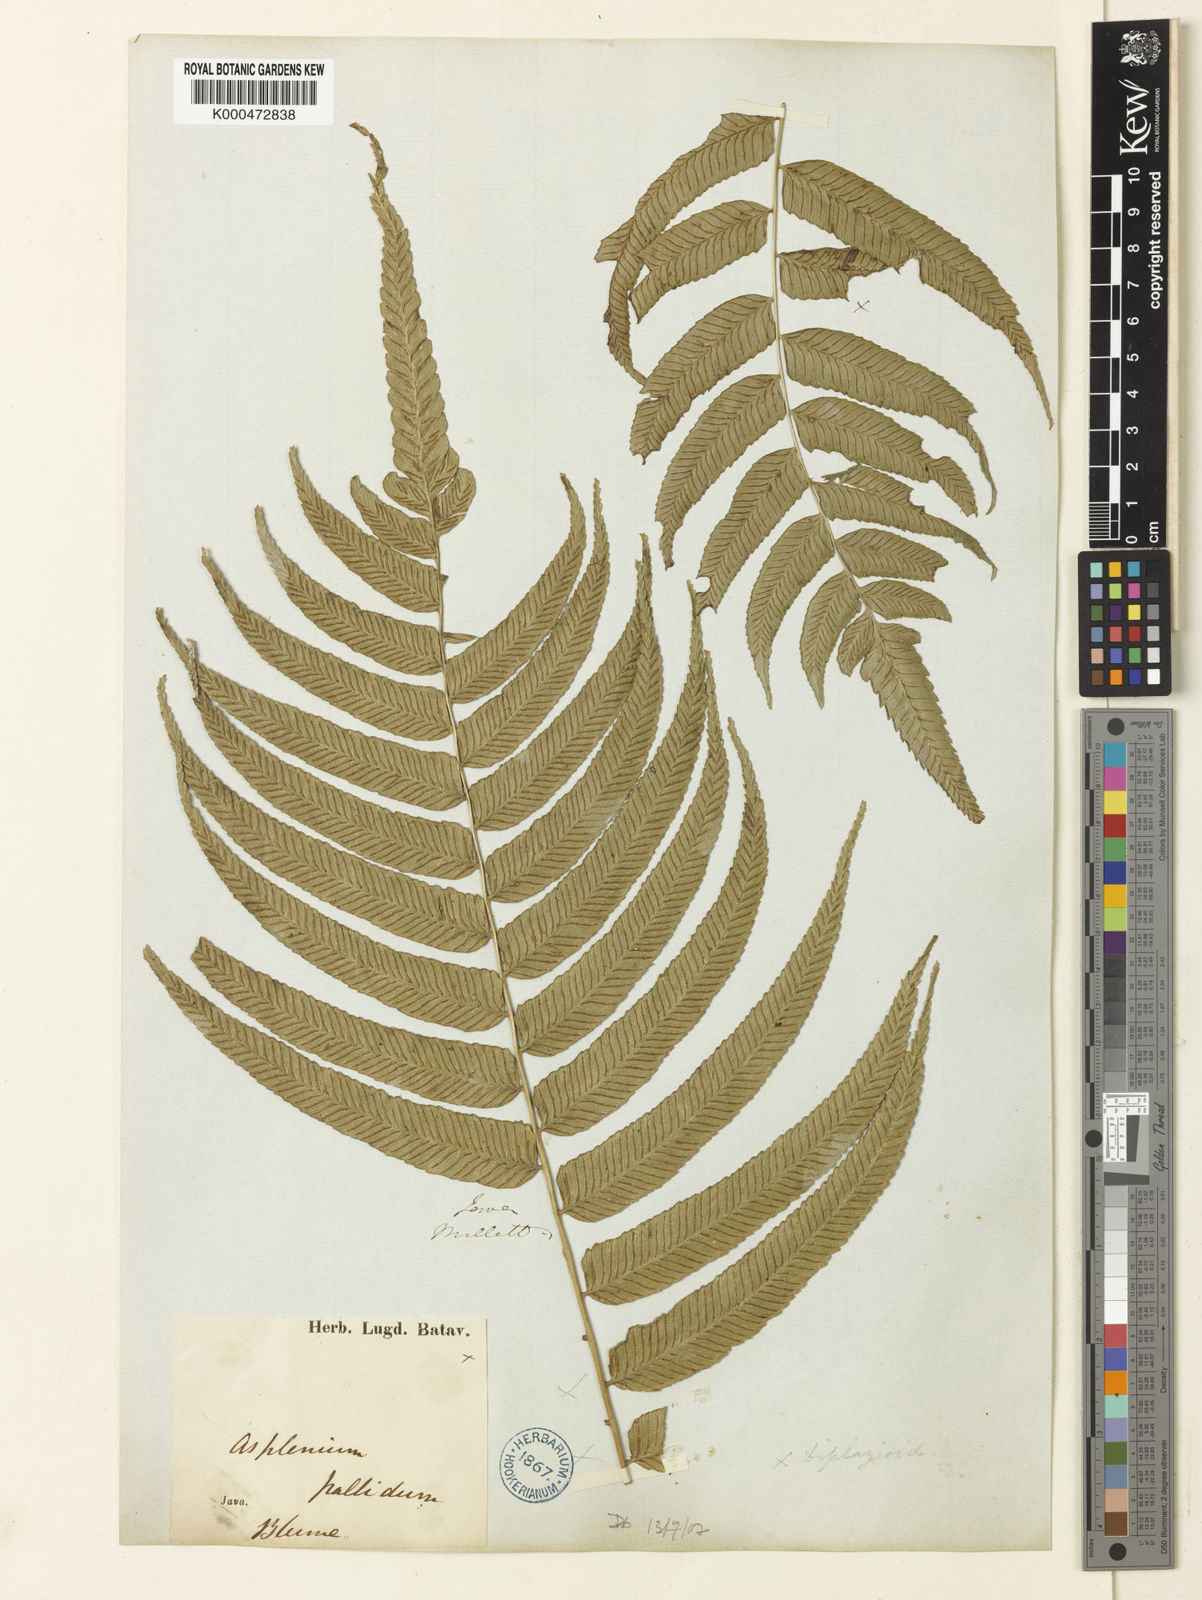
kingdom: Plantae
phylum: Tracheophyta
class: Polypodiopsida
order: Polypodiales
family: Athyriaceae
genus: Diplazium
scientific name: Diplazium pallidum
